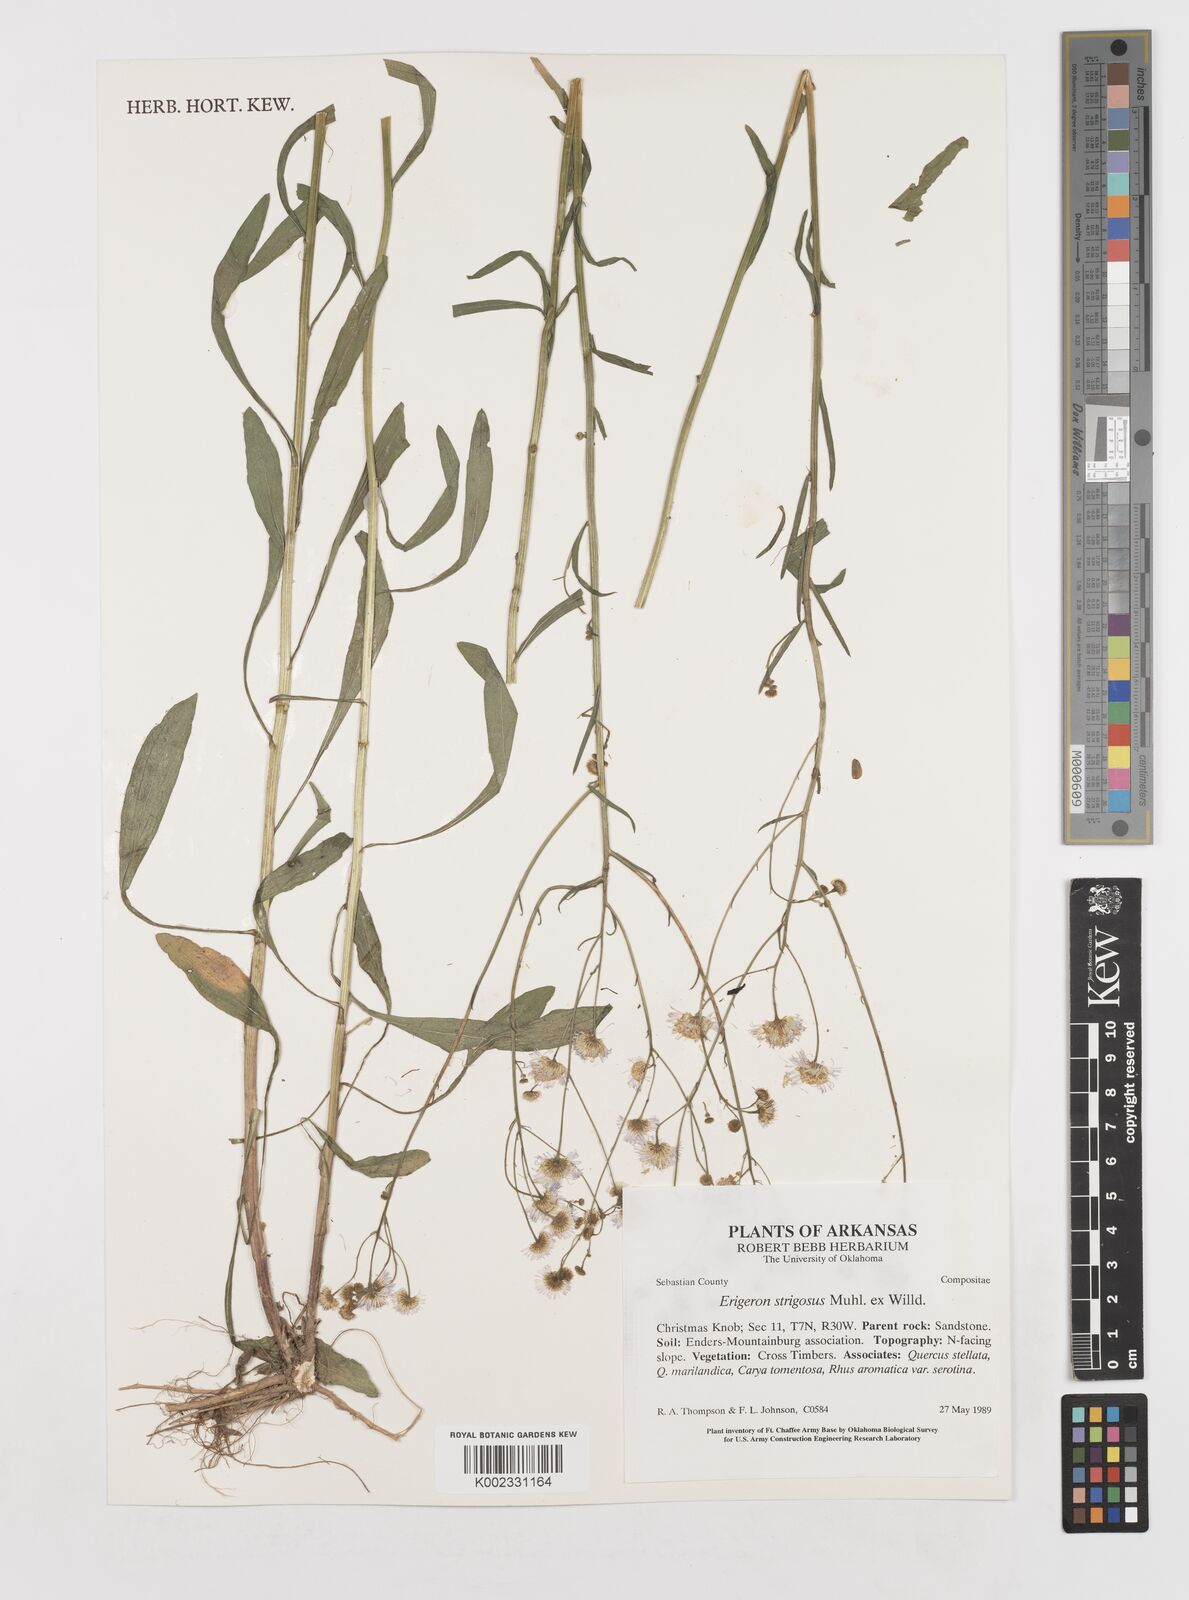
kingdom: Plantae
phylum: Tracheophyta
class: Magnoliopsida
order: Asterales
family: Asteraceae
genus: Erigeron
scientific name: Erigeron strigosus
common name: Common eastern fleabane
